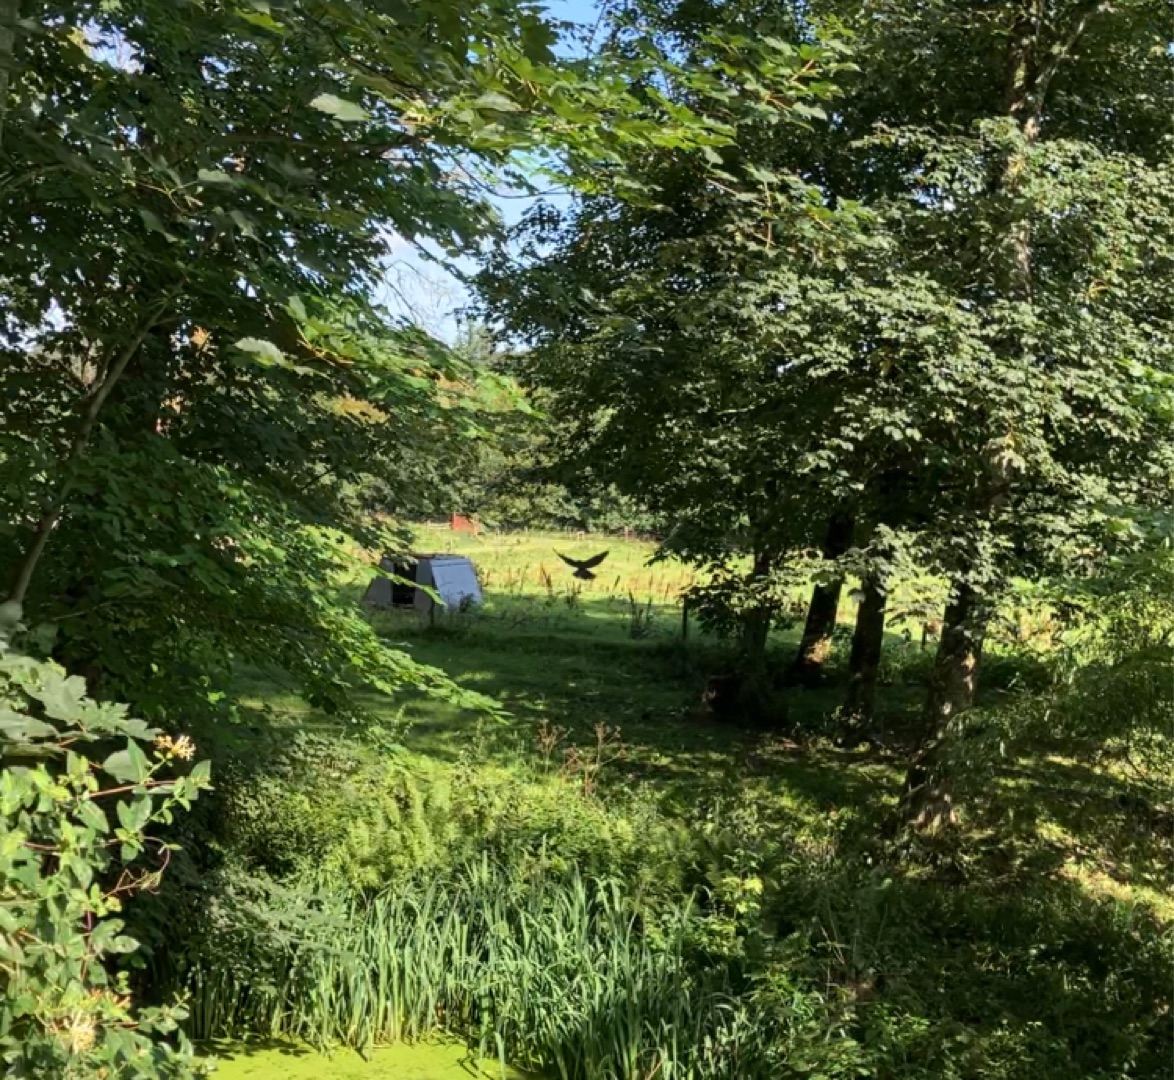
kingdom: Animalia
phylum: Chordata
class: Aves
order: Accipitriformes
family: Accipitridae
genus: Accipiter
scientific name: Accipiter nisus
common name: Spurvehøg
